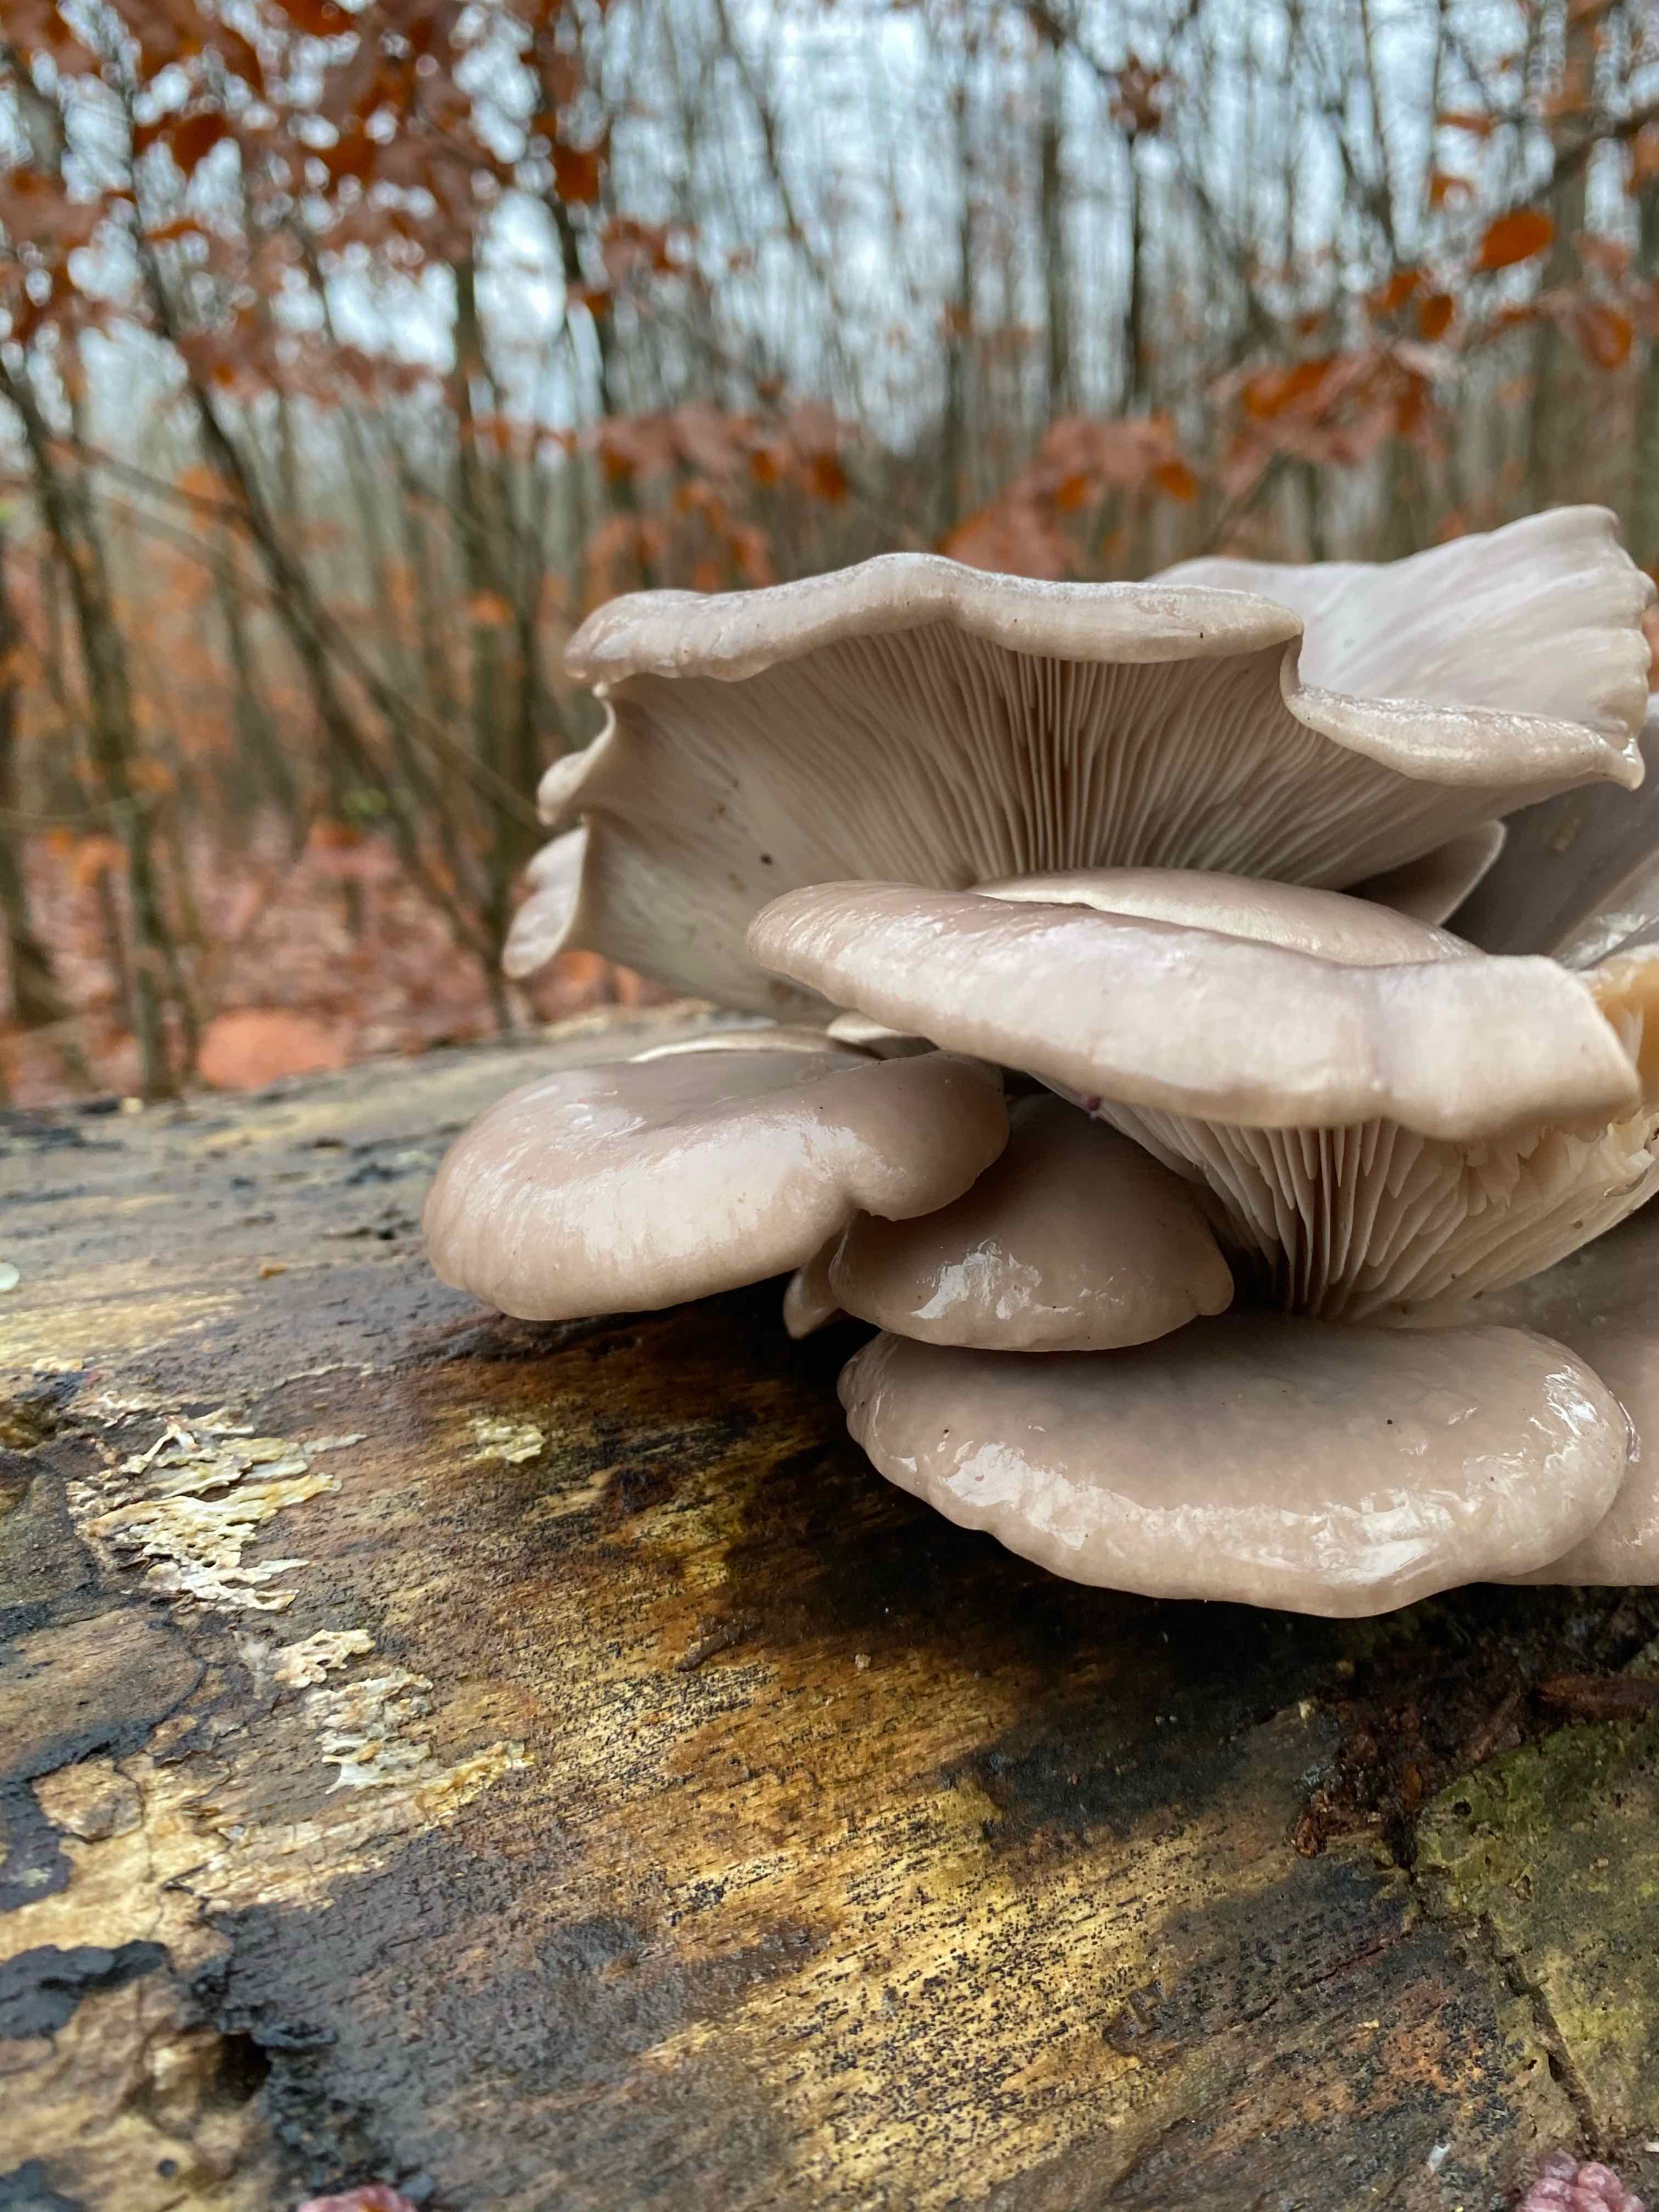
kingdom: Fungi
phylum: Basidiomycota
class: Agaricomycetes
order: Agaricales
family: Pleurotaceae
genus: Pleurotus
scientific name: Pleurotus ostreatus
